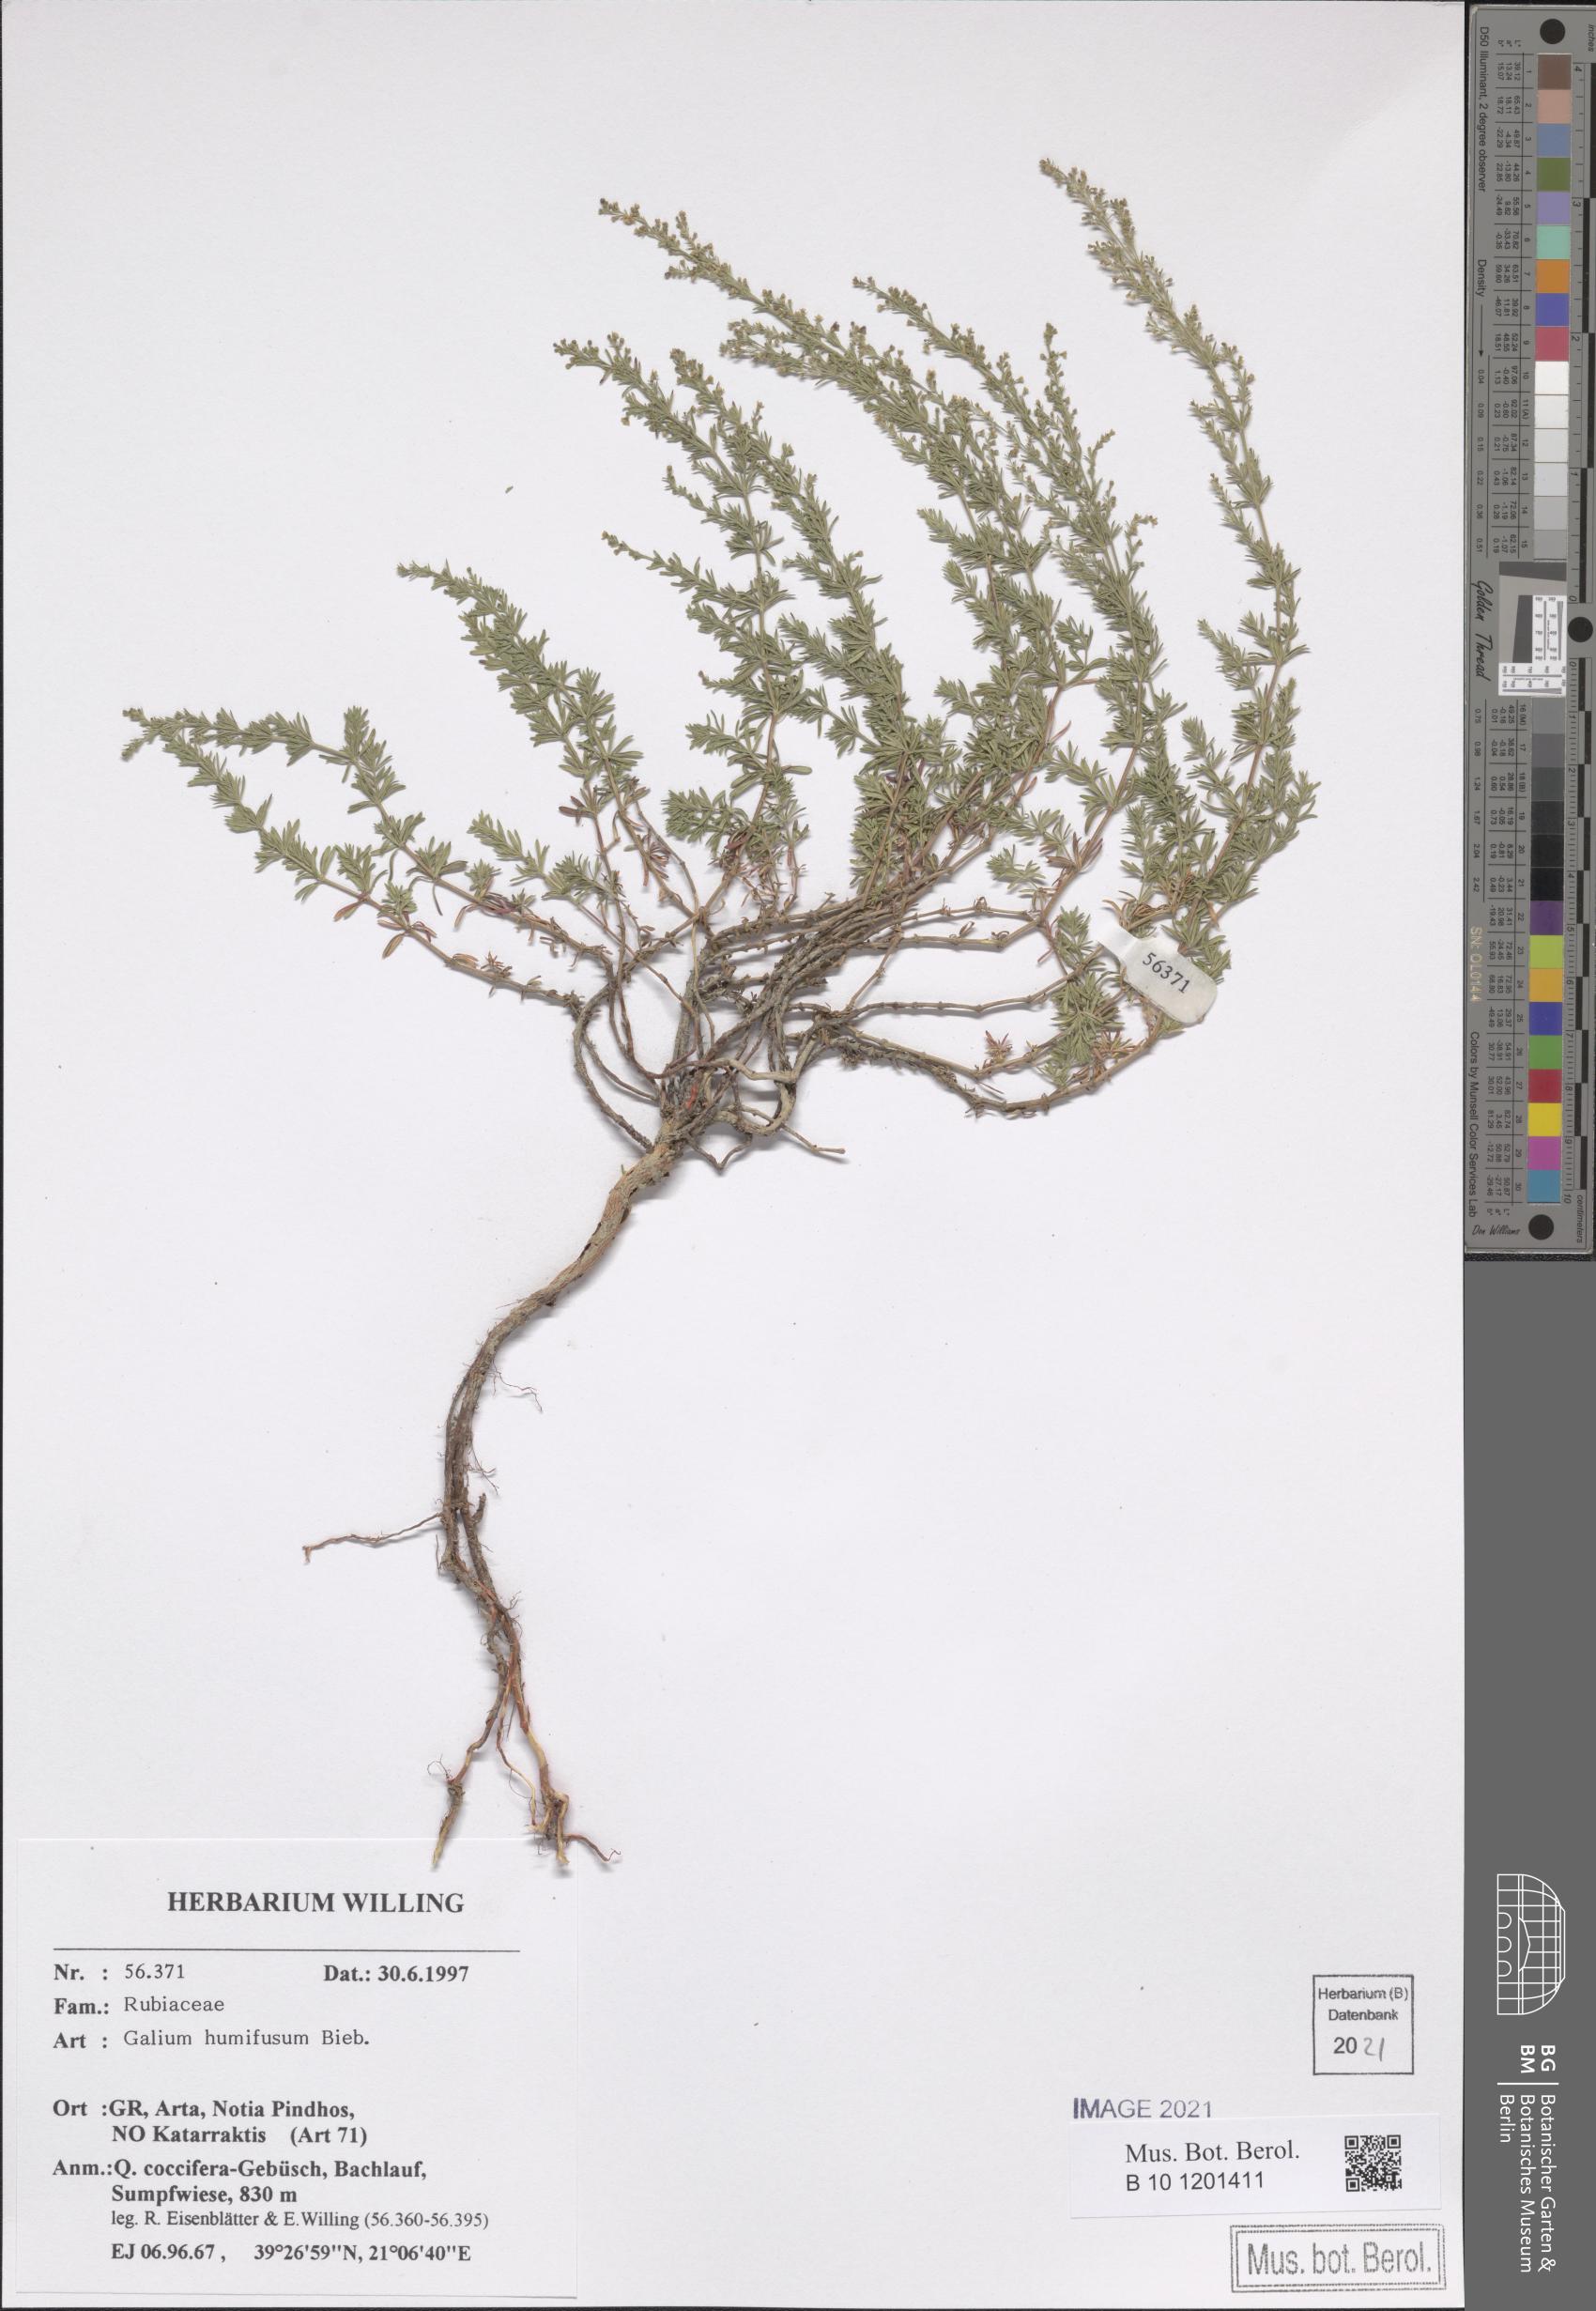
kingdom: Plantae
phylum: Tracheophyta
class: Magnoliopsida
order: Gentianales
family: Rubiaceae
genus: Galium
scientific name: Galium humifusum
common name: Spreading bedstraw
